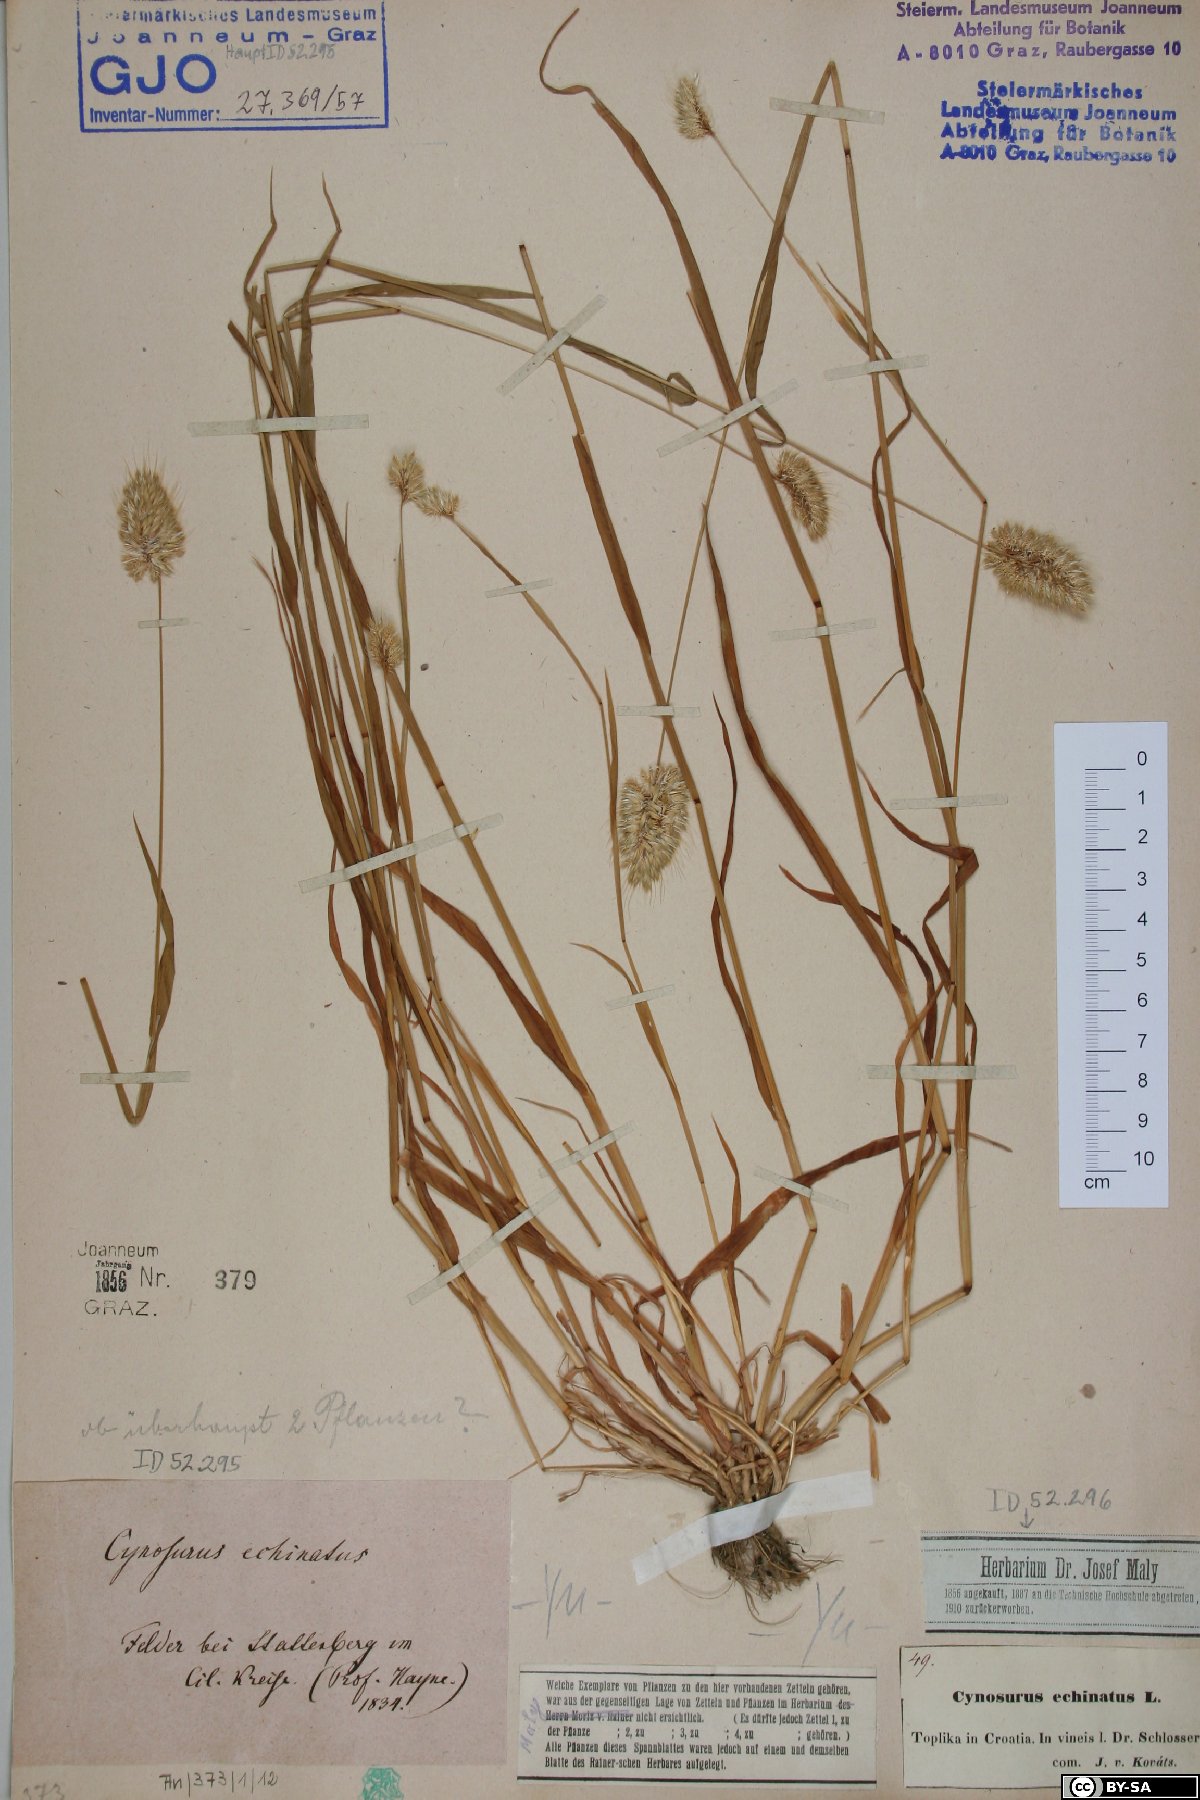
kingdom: Plantae
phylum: Tracheophyta
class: Liliopsida
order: Poales
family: Poaceae
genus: Cynosurus
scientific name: Cynosurus echinatus
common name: Rough dog's-tail
